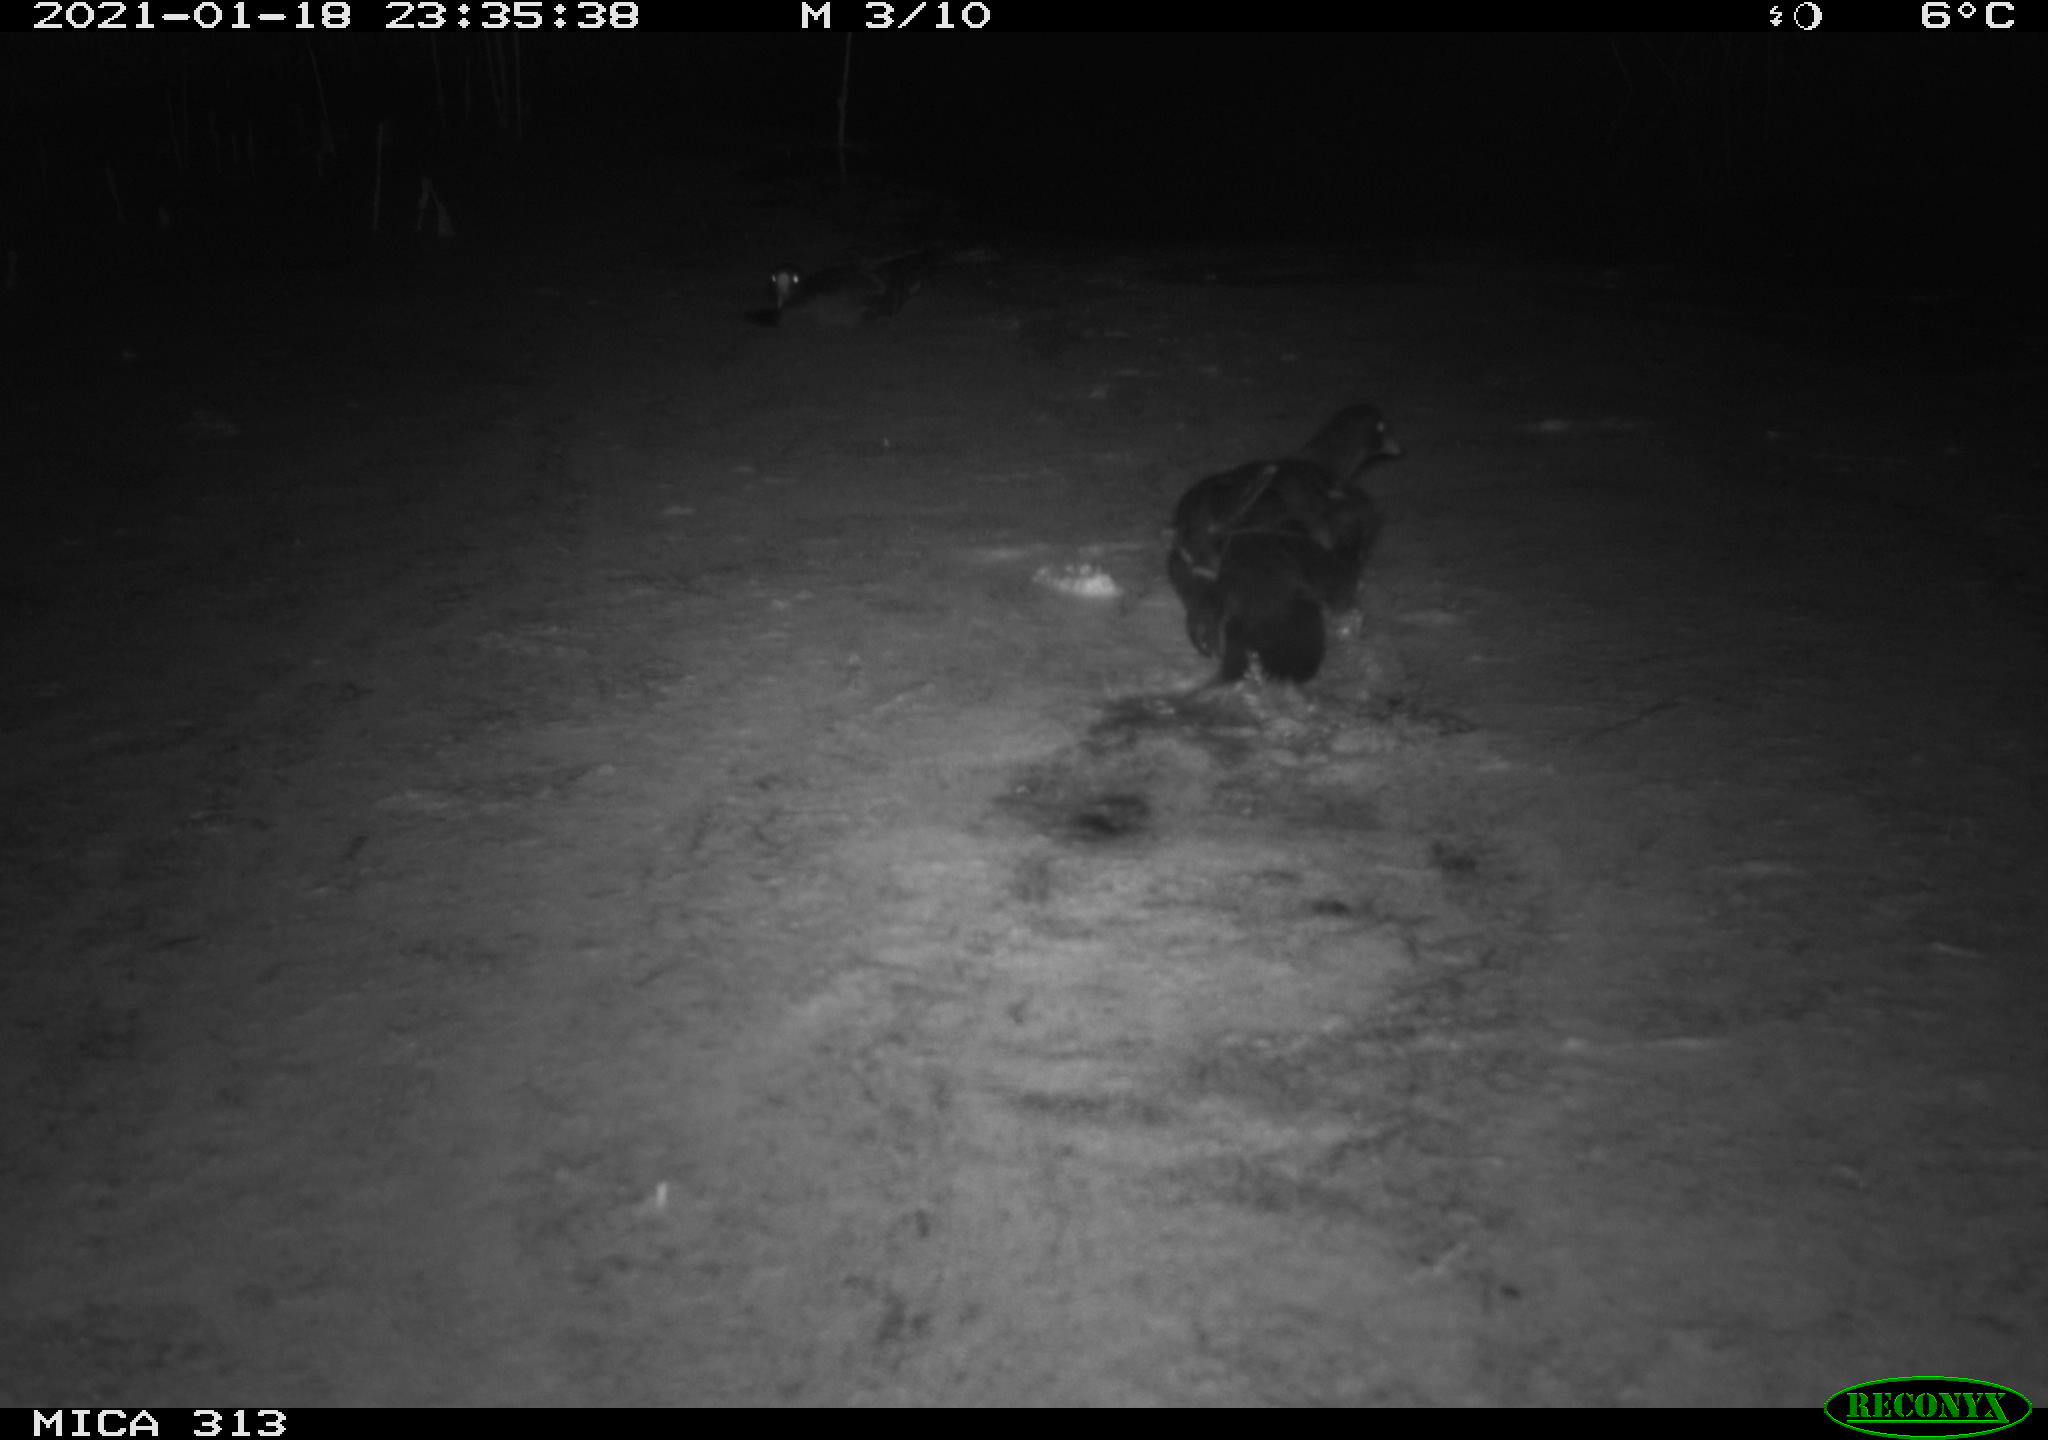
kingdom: Animalia
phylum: Chordata
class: Aves
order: Gruiformes
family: Rallidae
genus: Gallinula
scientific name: Gallinula chloropus
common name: Common moorhen
